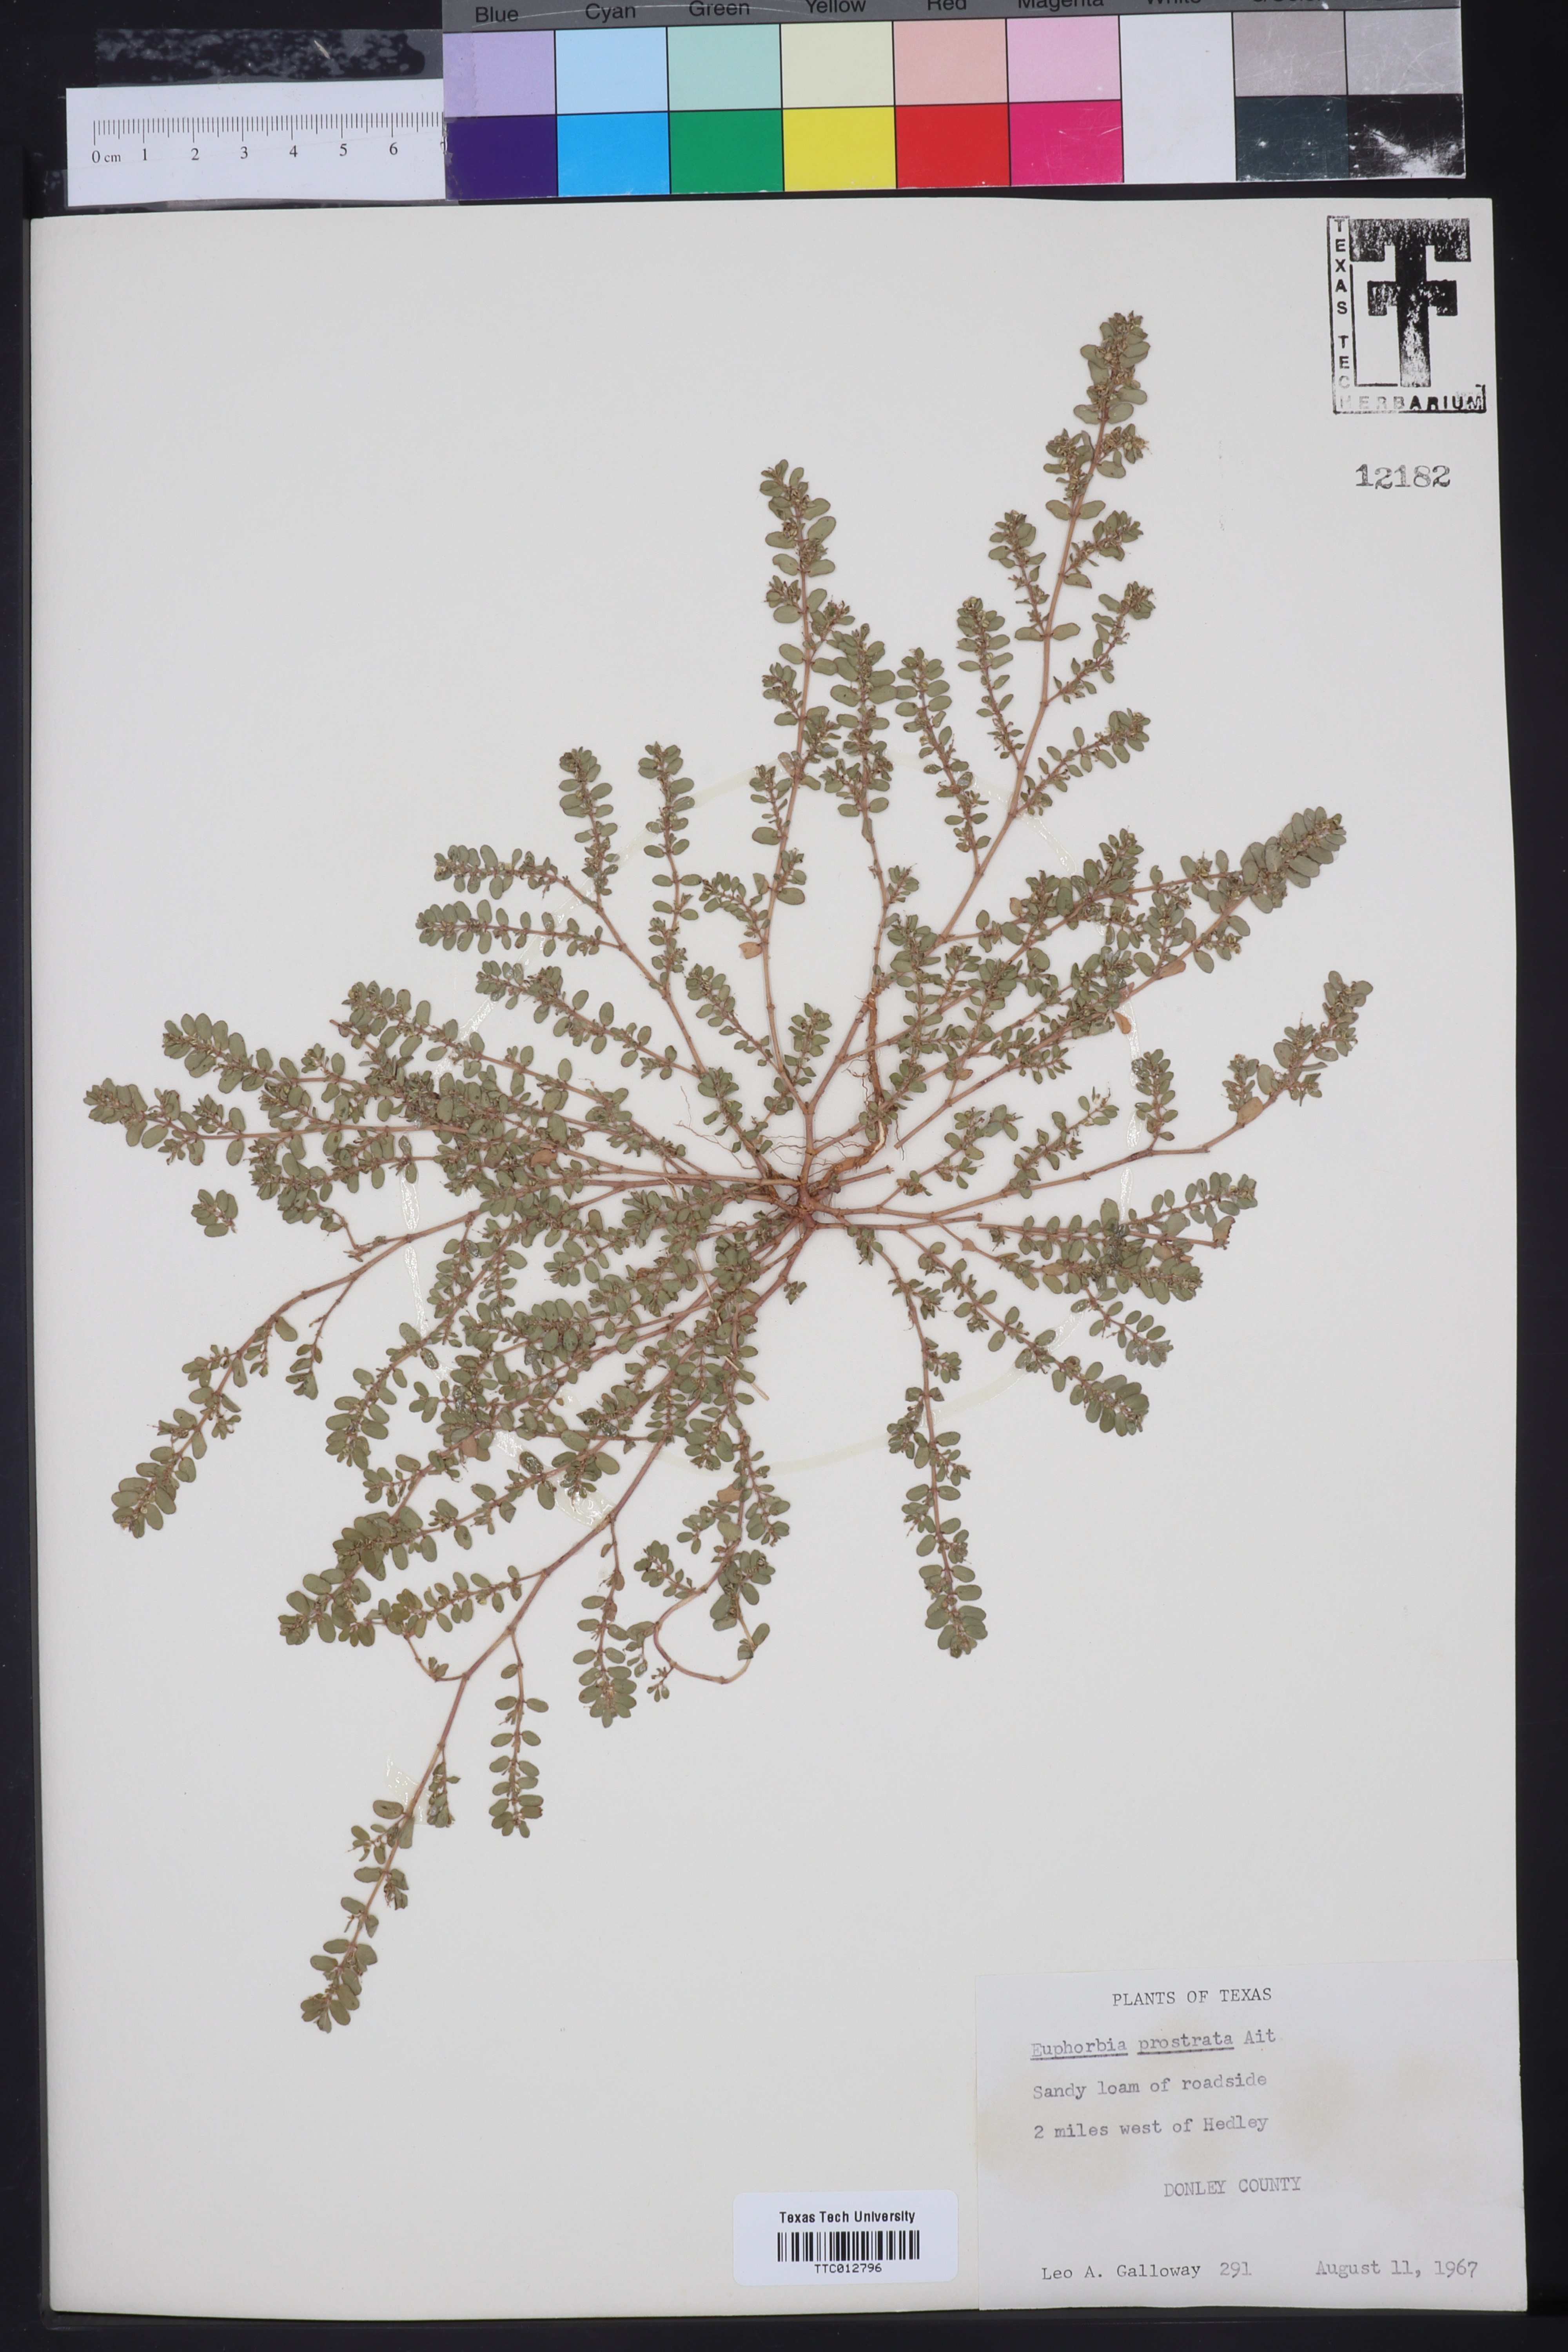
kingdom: Plantae
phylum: Tracheophyta
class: Magnoliopsida
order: Malpighiales
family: Euphorbiaceae
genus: Euphorbia
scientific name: Euphorbia prostrata
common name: Prostrate sandmat
